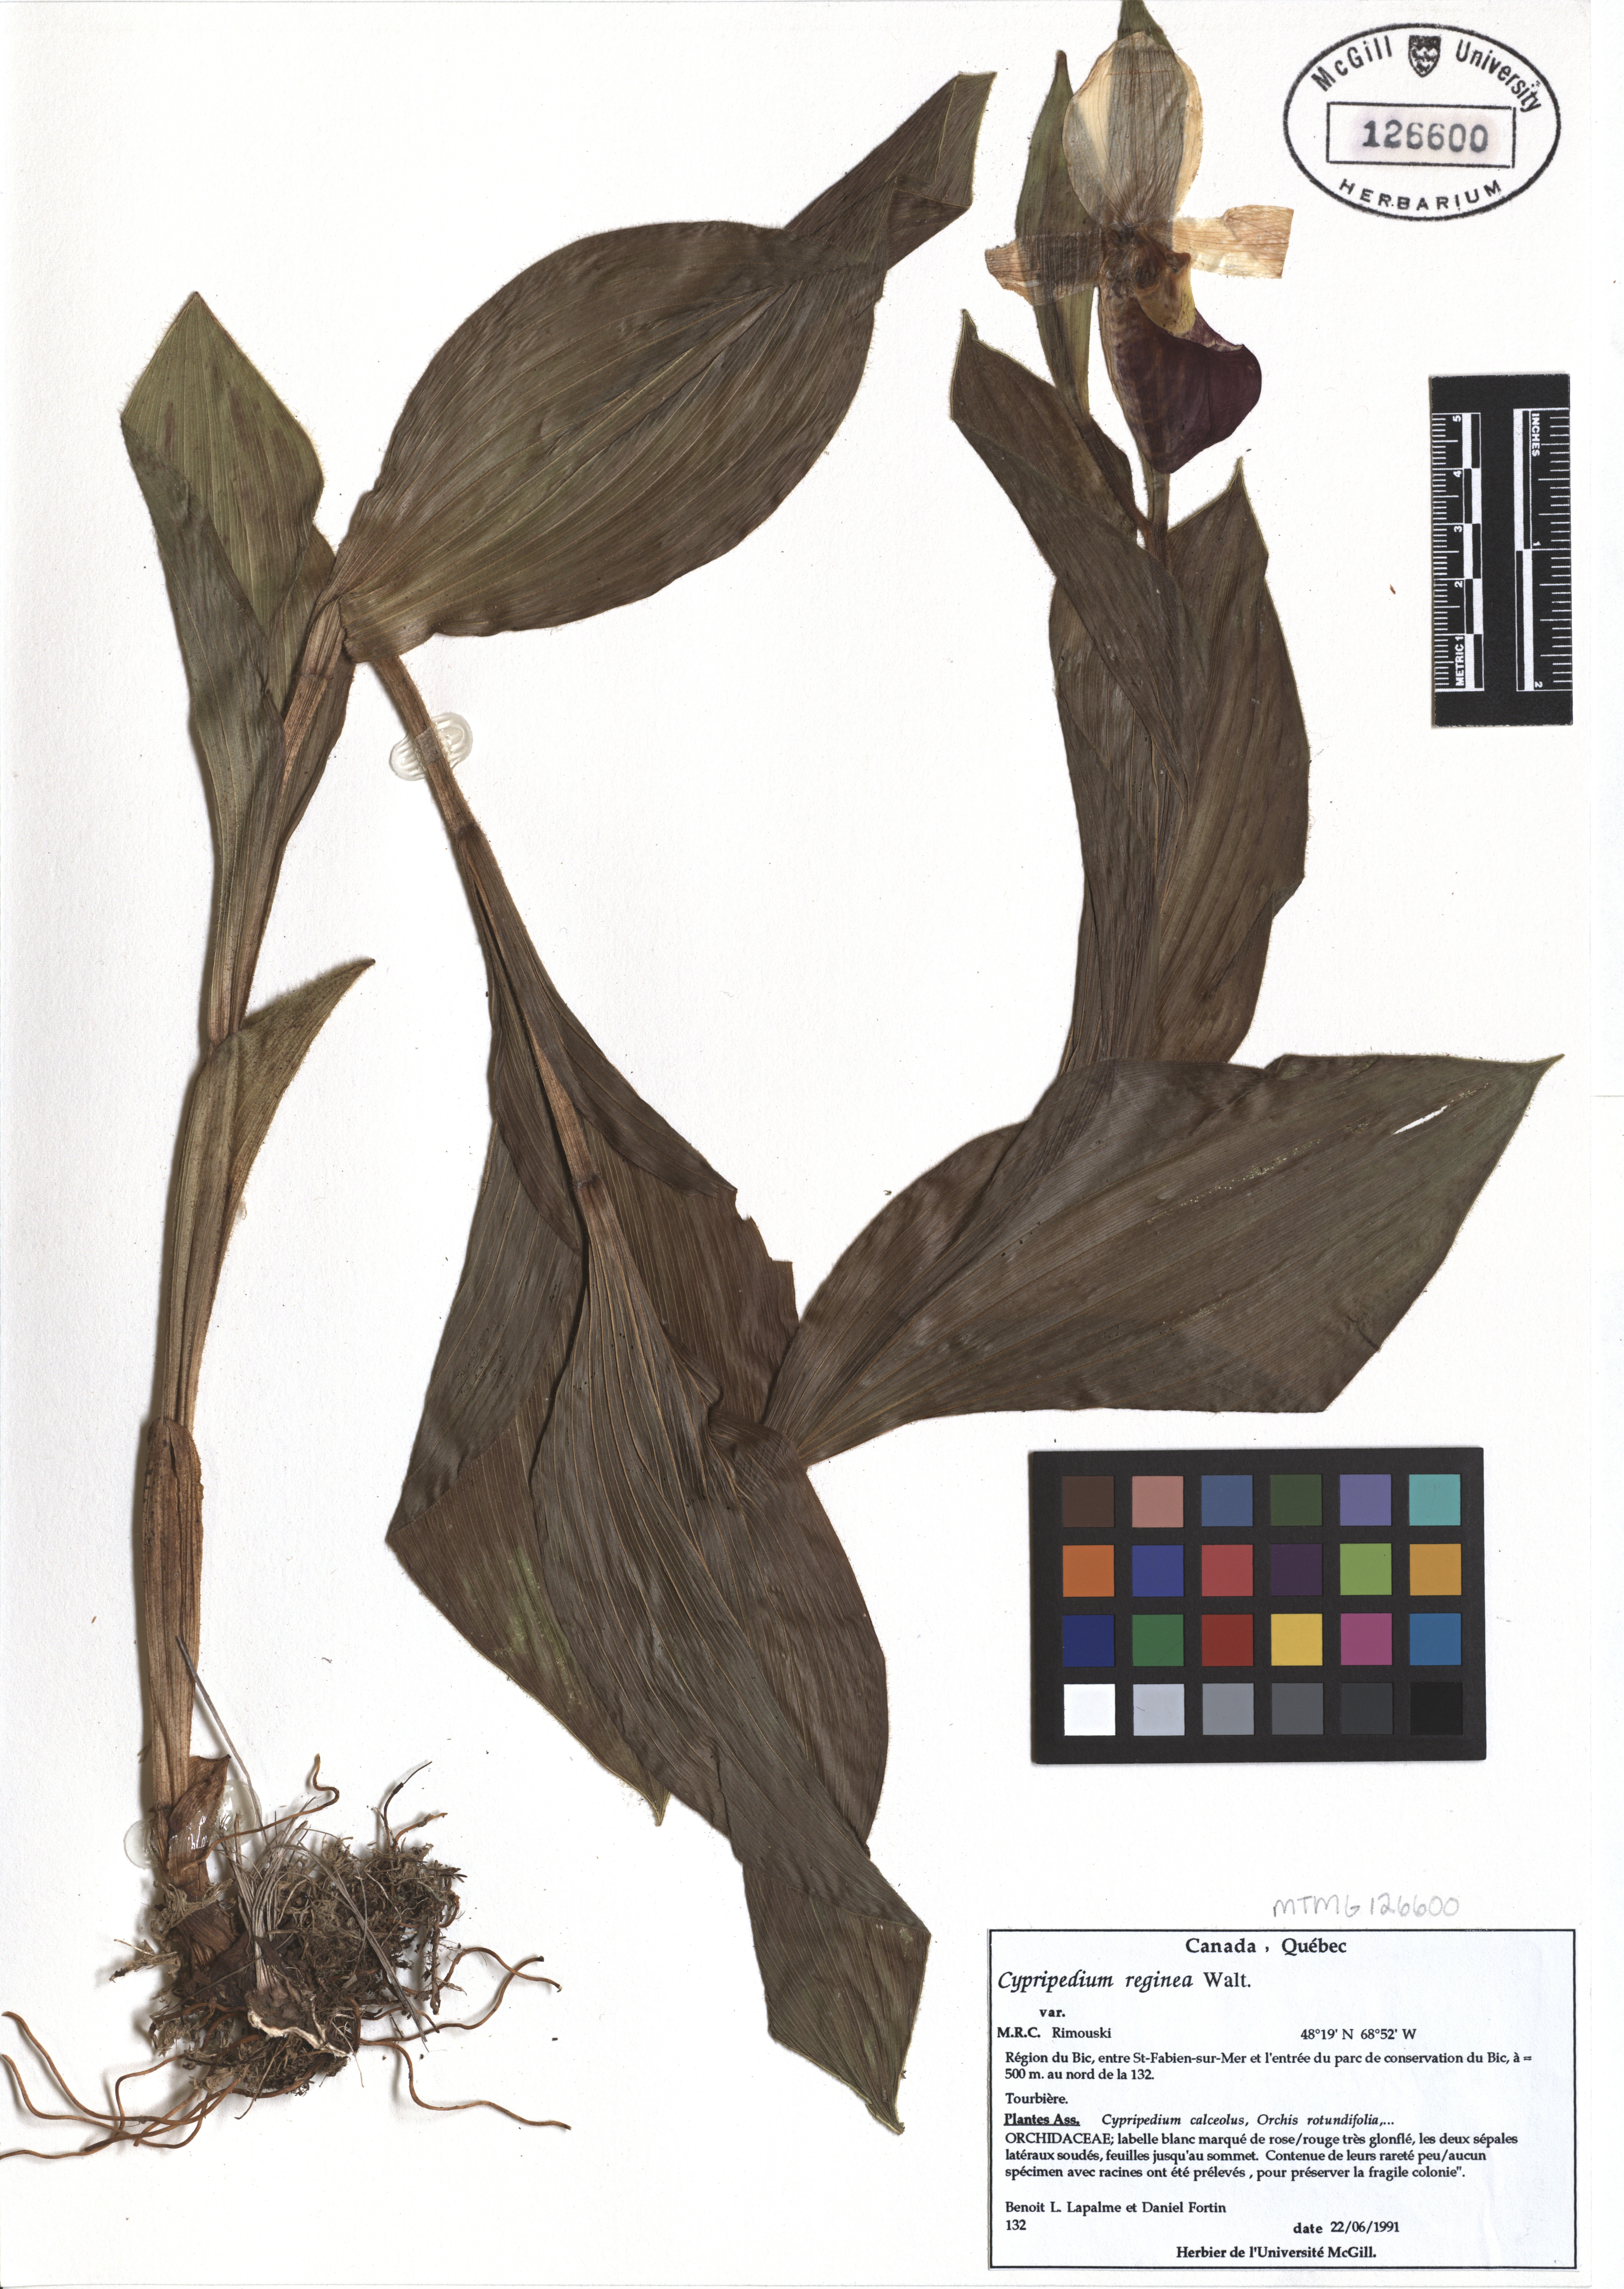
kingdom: Plantae
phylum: Tracheophyta
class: Liliopsida
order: Asparagales
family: Orchidaceae
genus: Cypripedium
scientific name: Cypripedium calceolus
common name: Lady's-slipper
